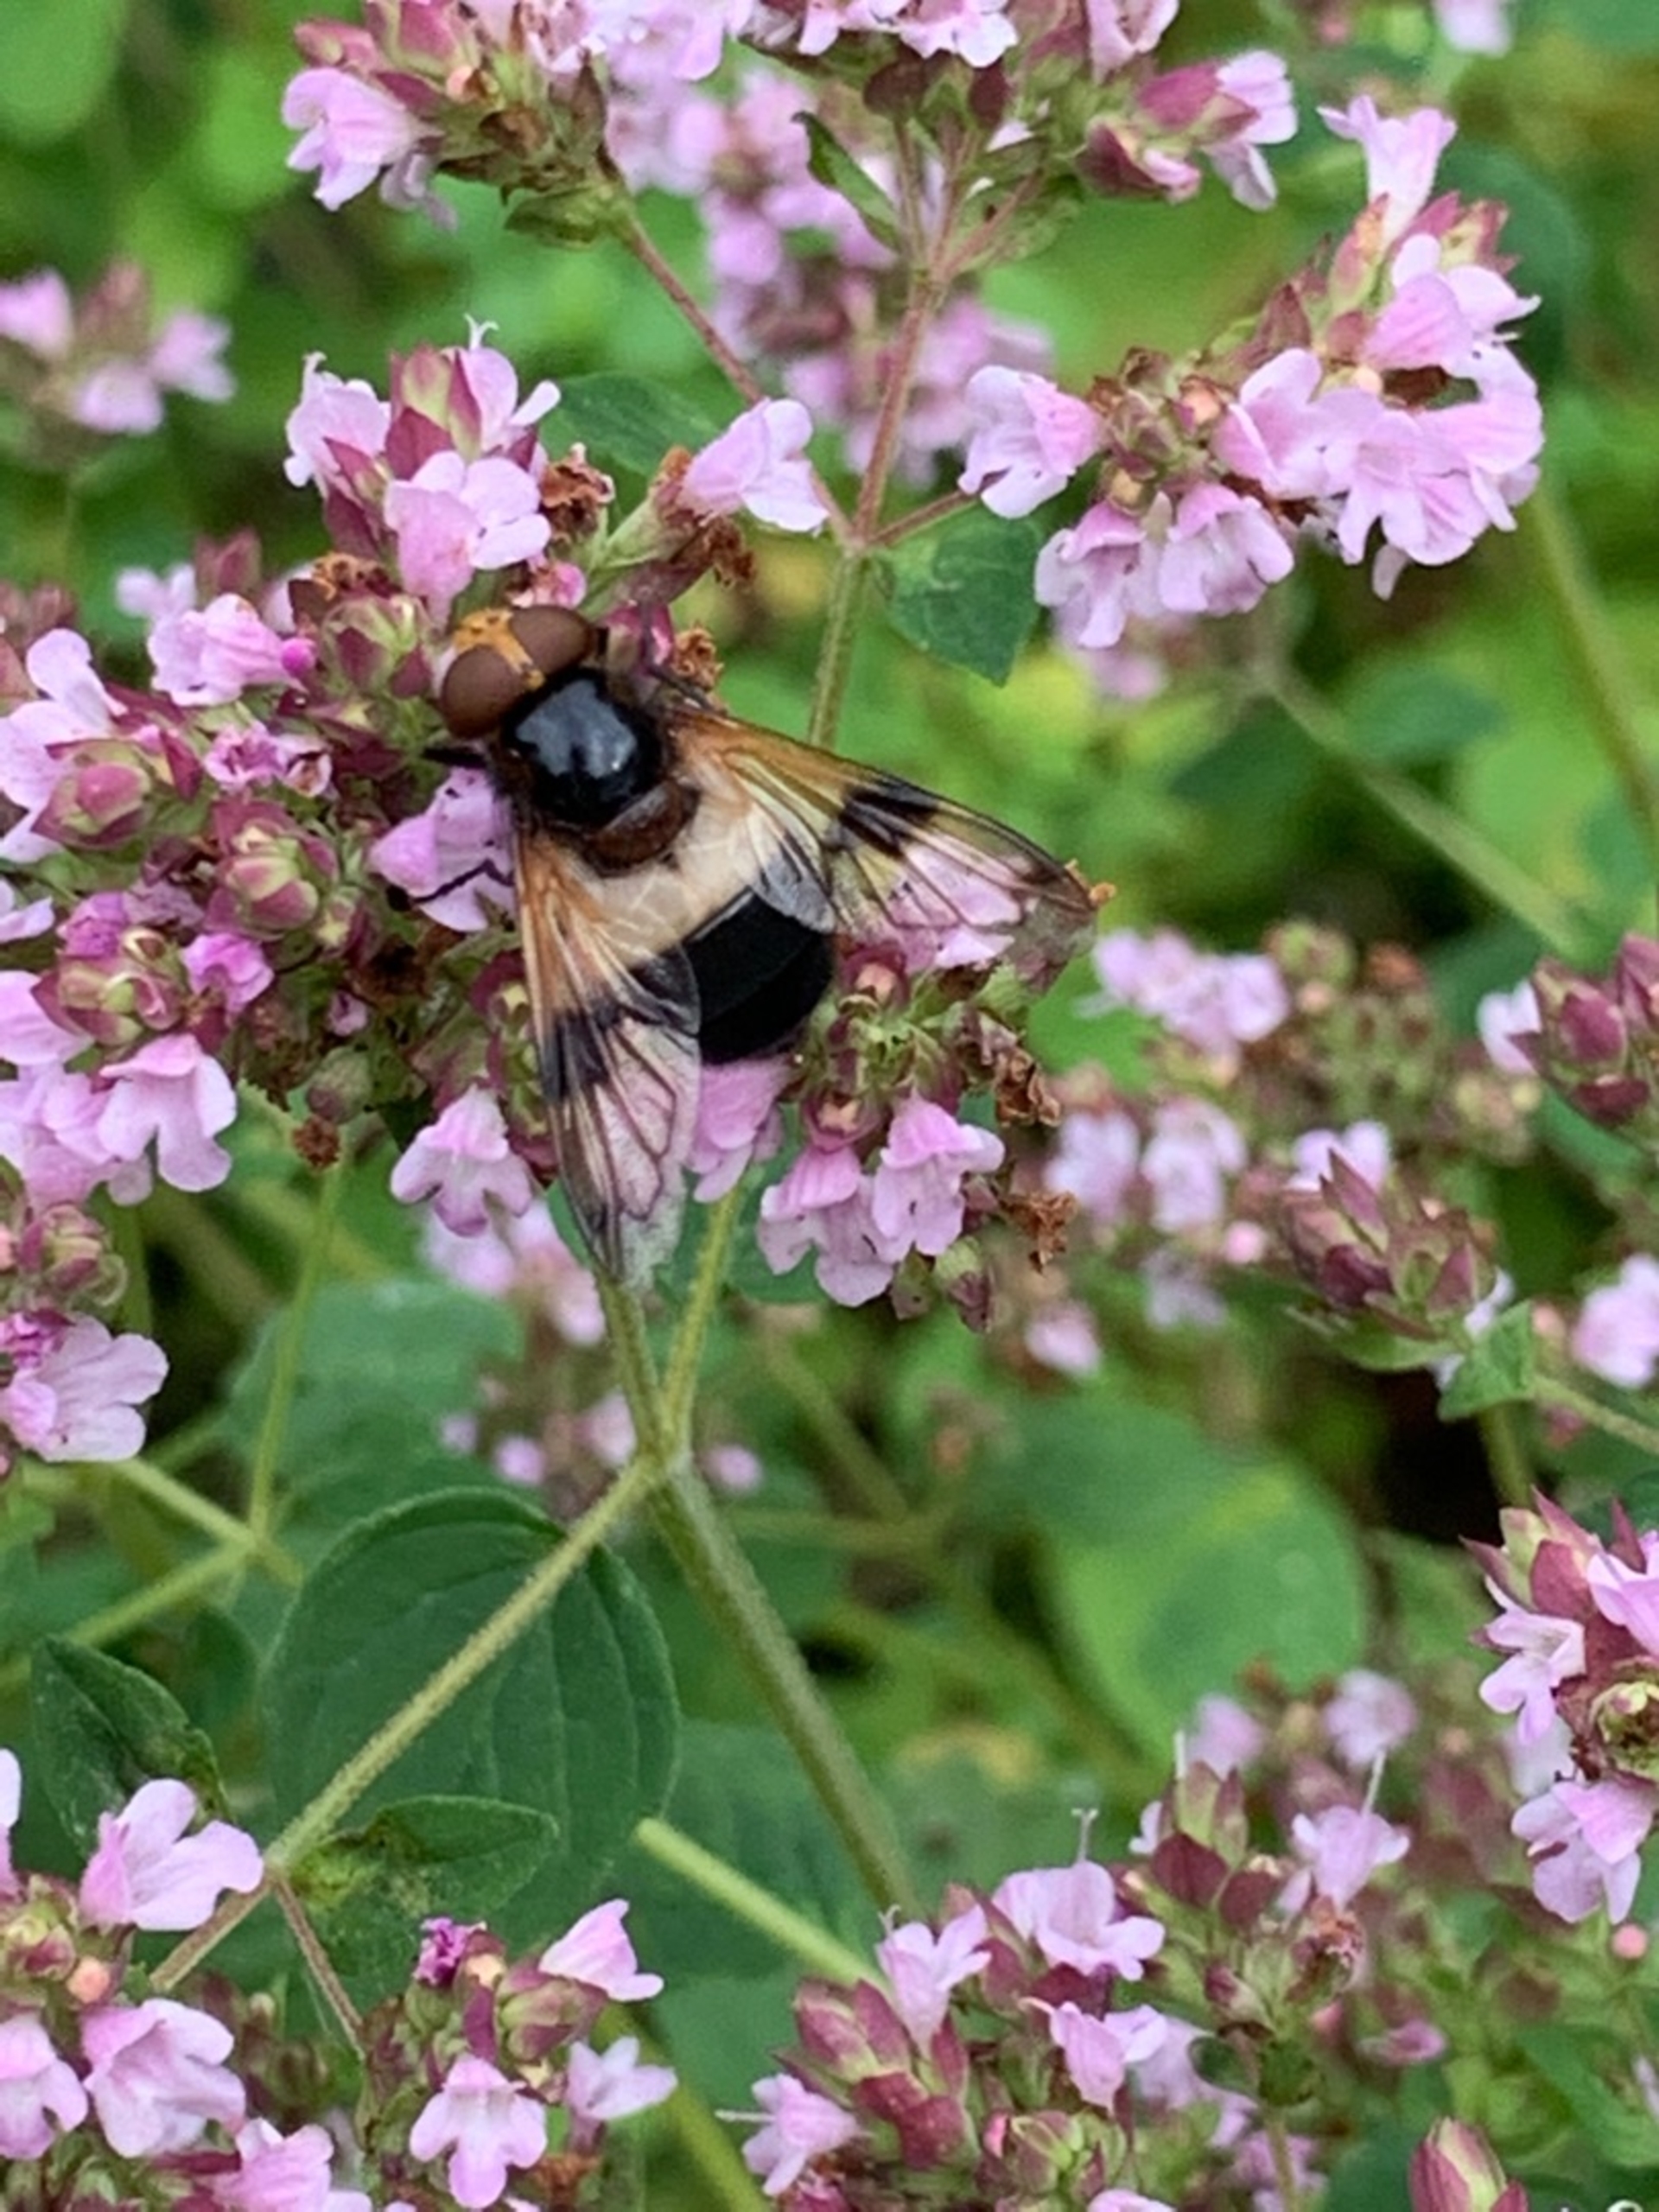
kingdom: Animalia
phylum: Arthropoda
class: Insecta
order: Diptera
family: Syrphidae
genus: Volucella
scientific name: Volucella pellucens
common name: Hvidbåndet humlesvirreflue
